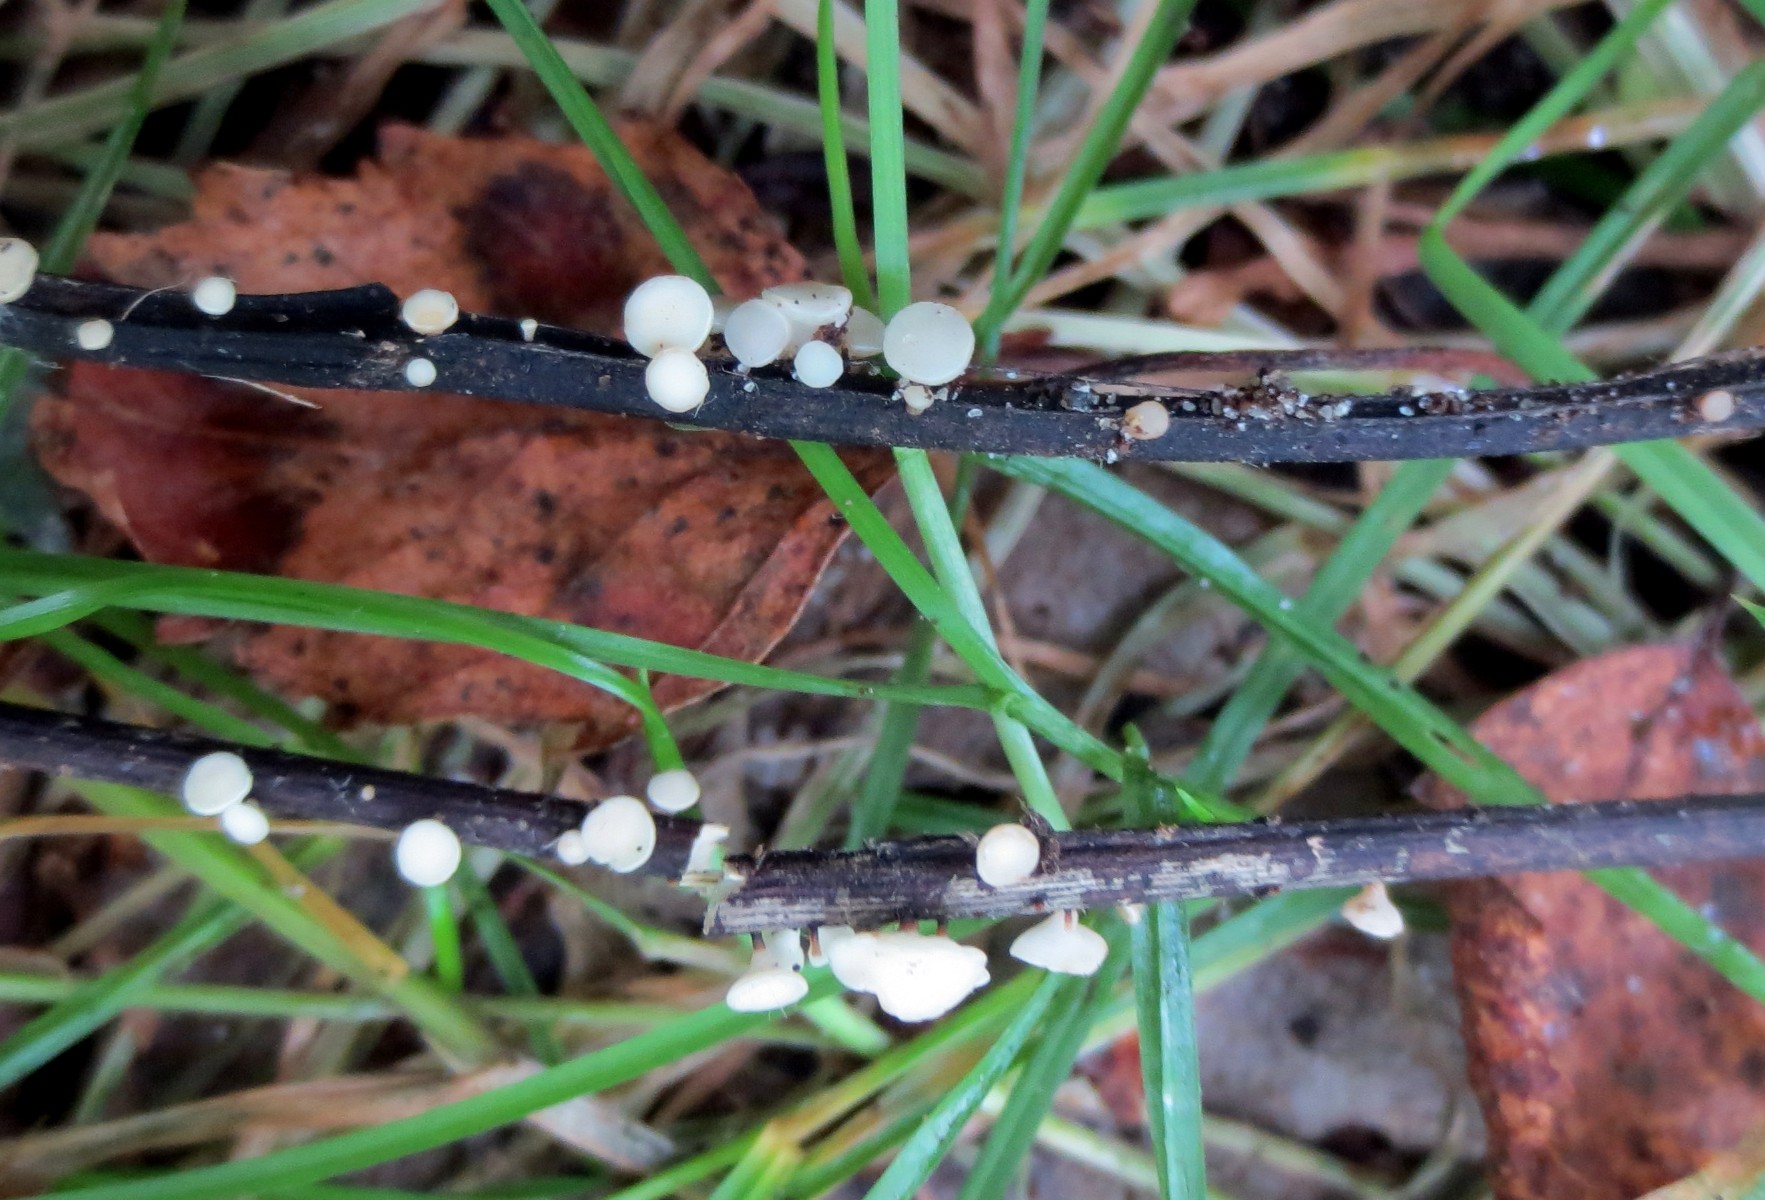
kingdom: Fungi
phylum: Ascomycota
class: Leotiomycetes
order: Helotiales
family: Helotiaceae
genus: Hymenoscyphus
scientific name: Hymenoscyphus fraxineus
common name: asketoptørre-stilkskive
